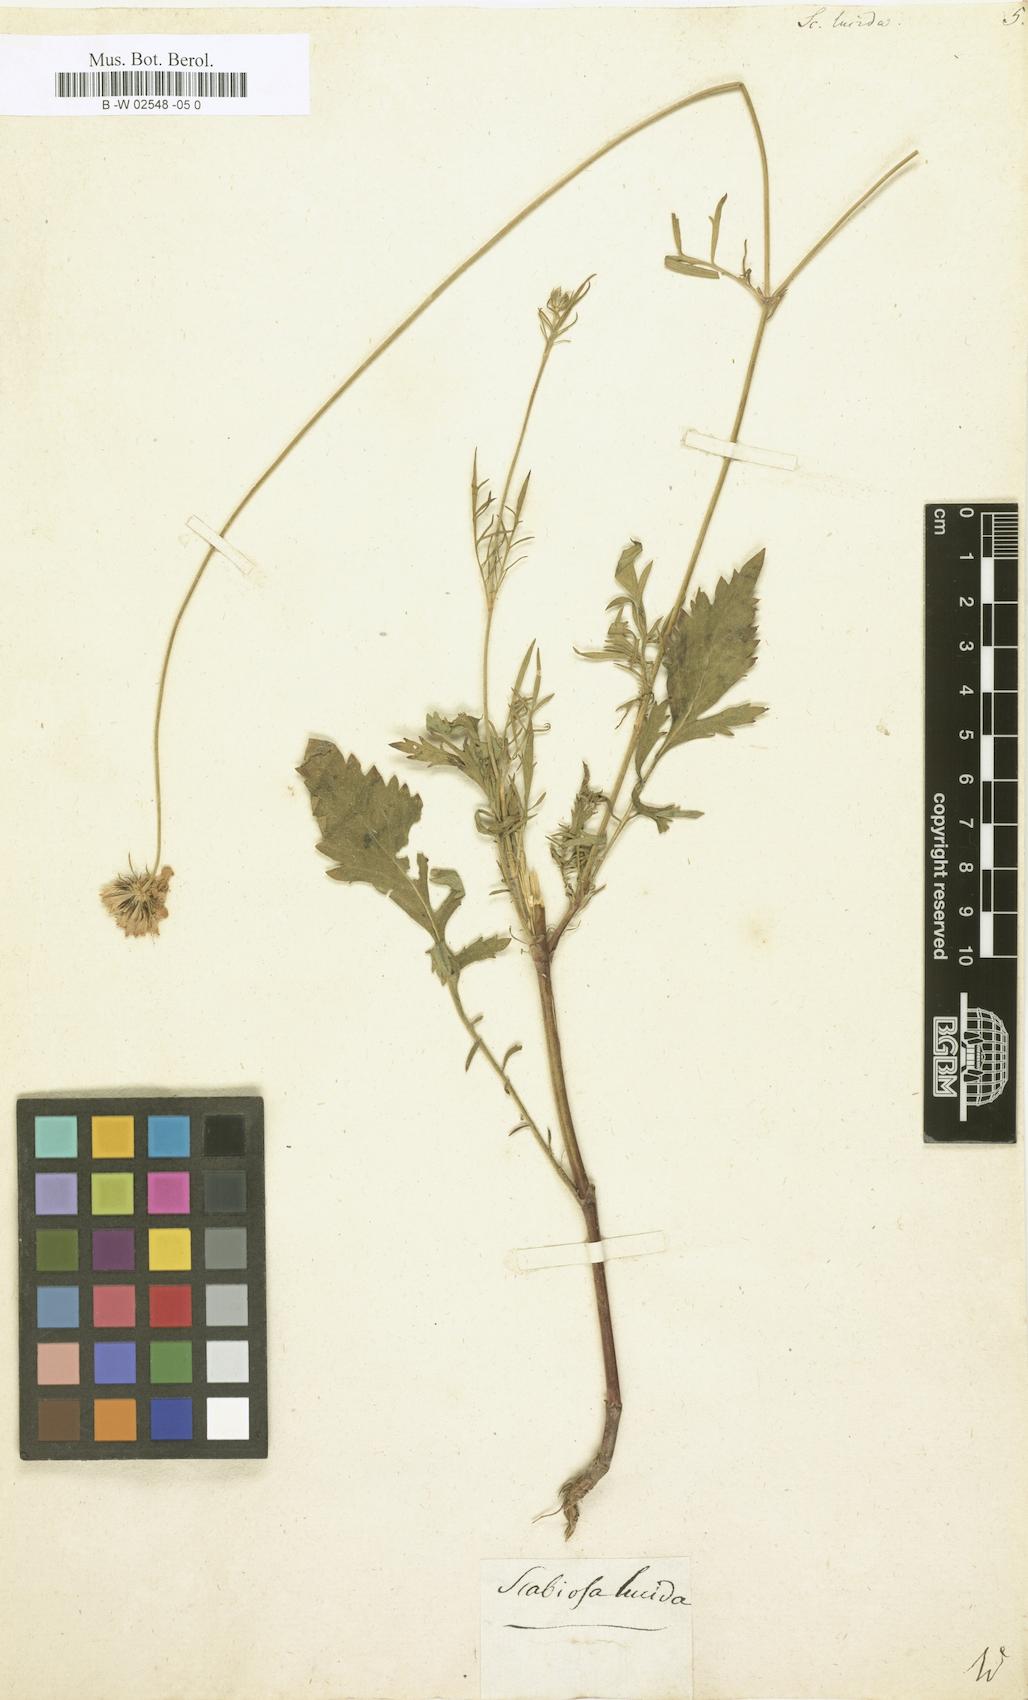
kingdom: Plantae
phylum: Tracheophyta
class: Magnoliopsida
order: Dipsacales
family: Caprifoliaceae
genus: Scabiosa
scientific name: Scabiosa lucida
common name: Shining scabious
